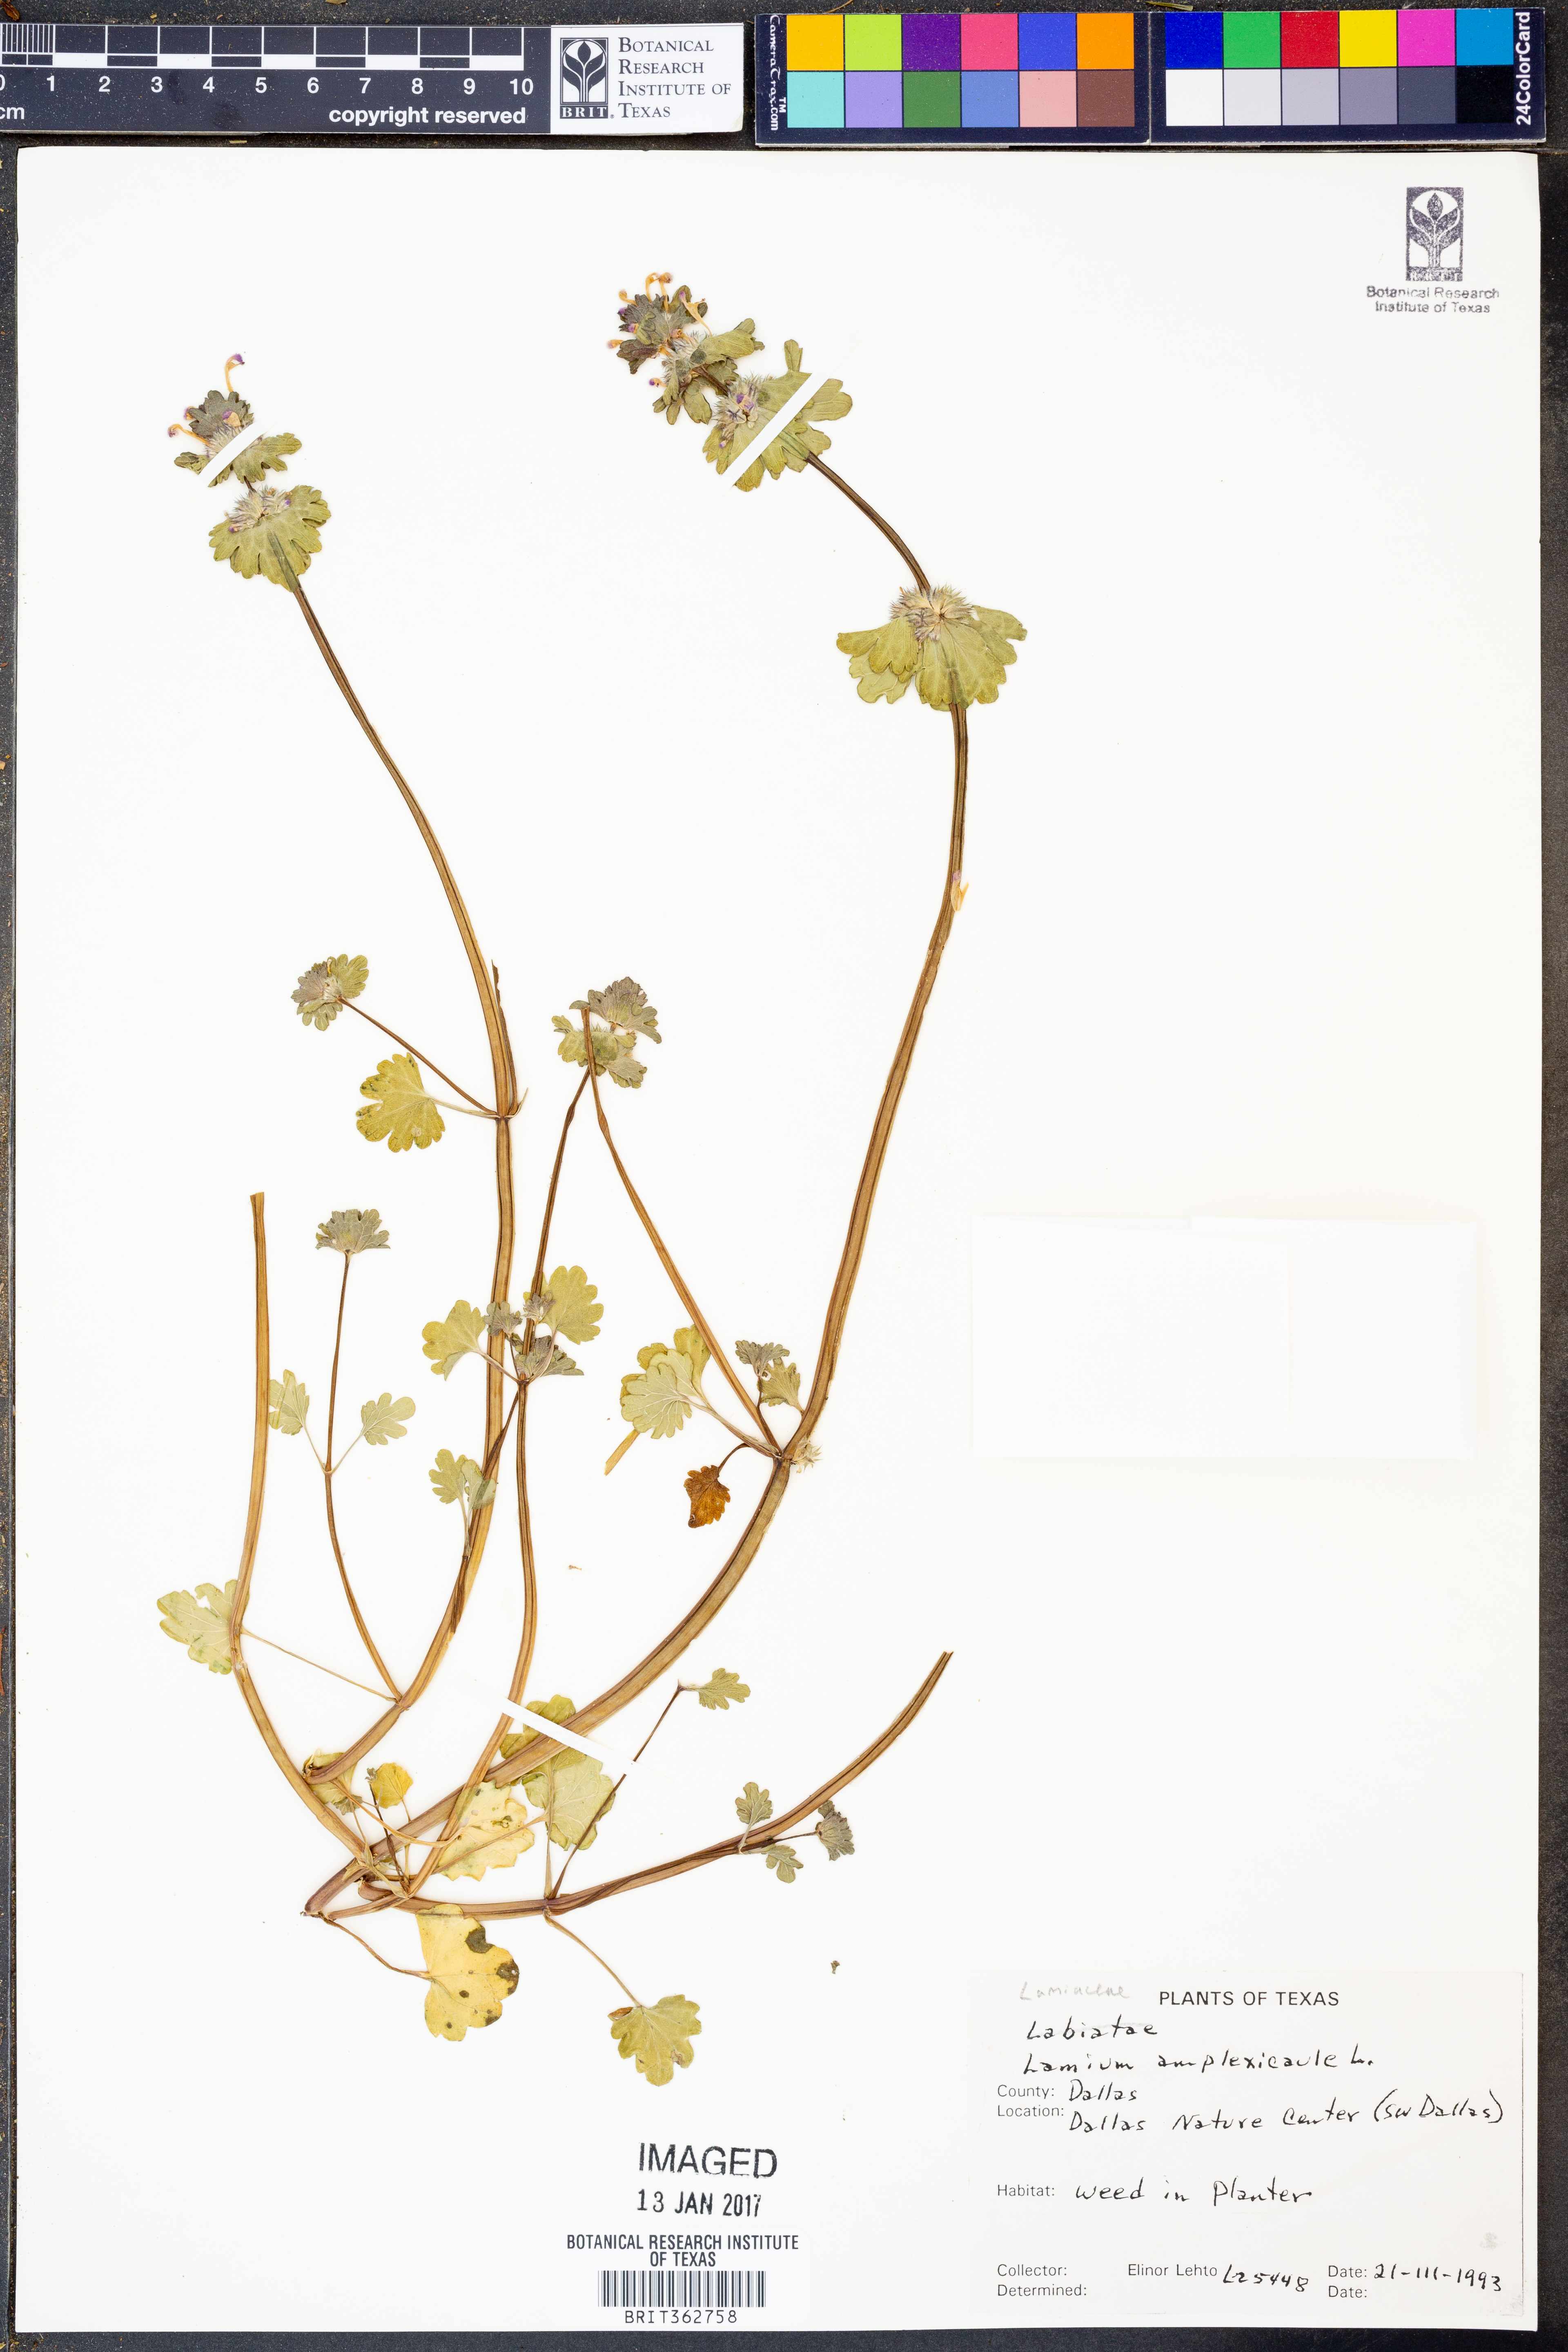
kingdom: Plantae
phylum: Tracheophyta
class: Magnoliopsida
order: Lamiales
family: Lamiaceae
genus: Lamium
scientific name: Lamium amplexicaule
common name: Henbit dead-nettle
